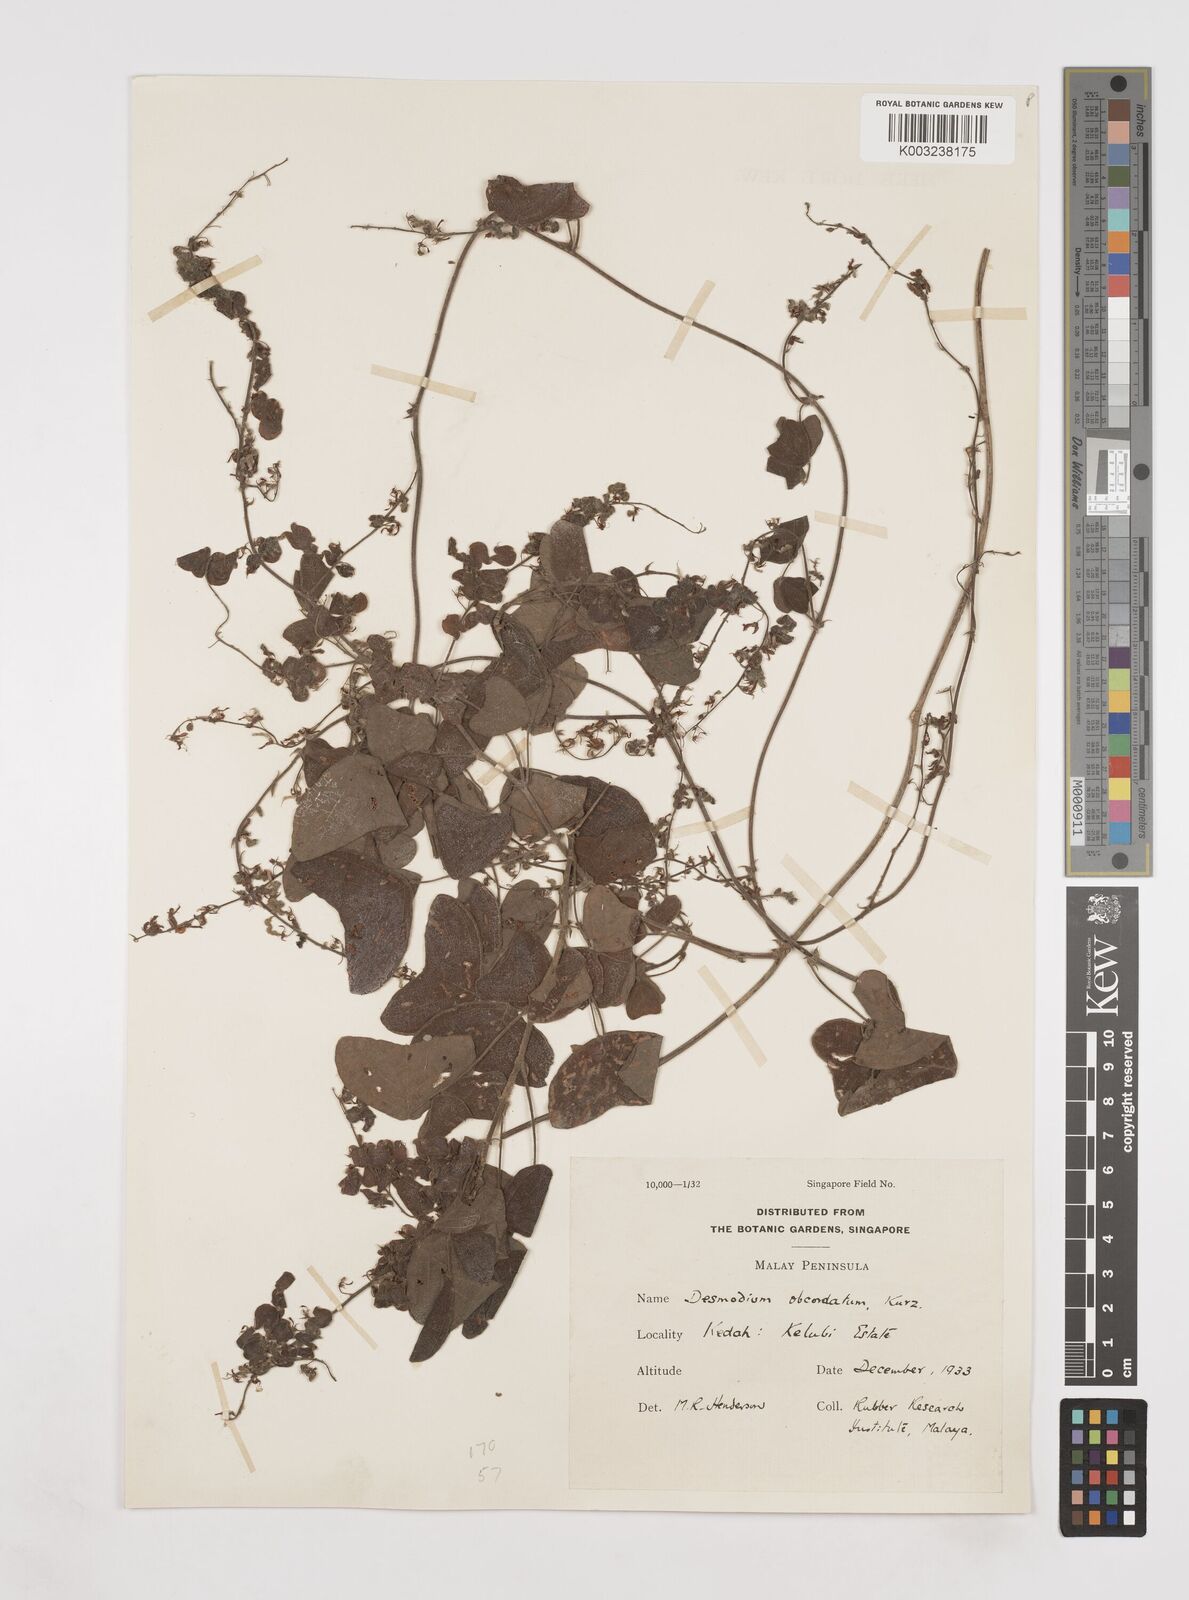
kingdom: Plantae
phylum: Tracheophyta
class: Magnoliopsida
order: Fabales
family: Fabaceae
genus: Hegnera
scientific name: Hegnera obcordata
